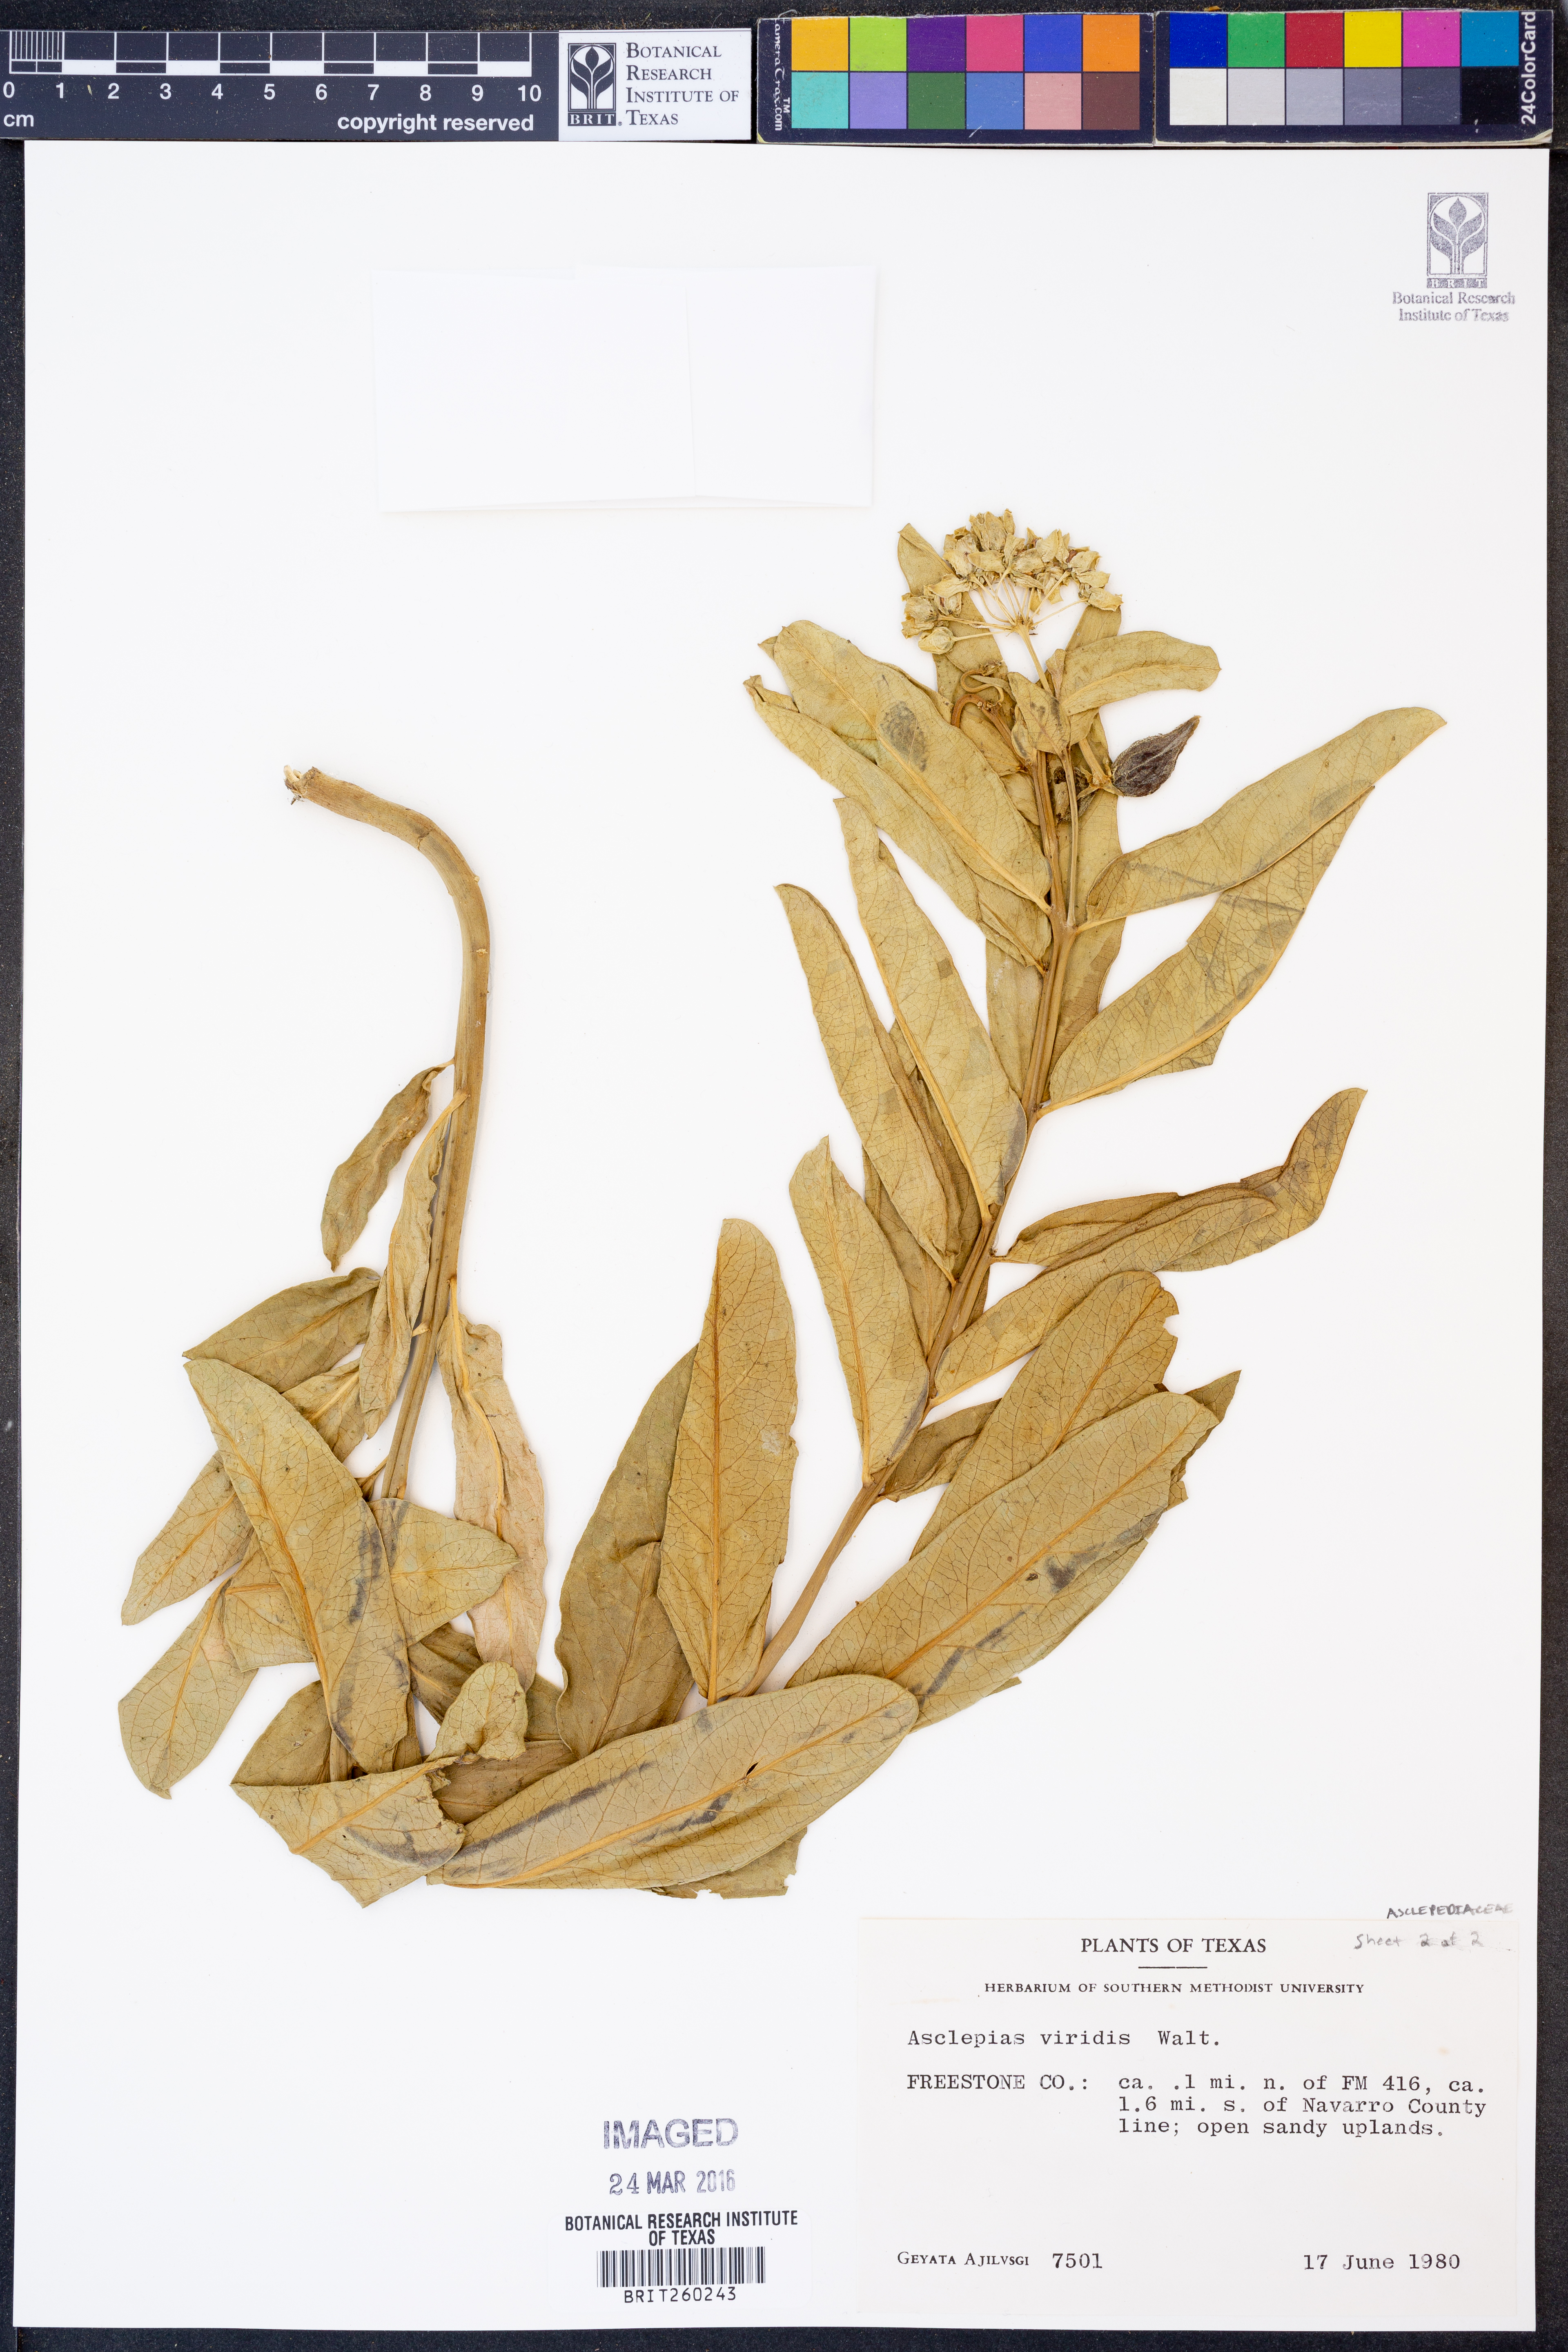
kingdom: Plantae
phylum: Tracheophyta
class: Magnoliopsida
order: Gentianales
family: Apocynaceae
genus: Asclepias
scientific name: Asclepias viridis
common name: Antelope-horns
